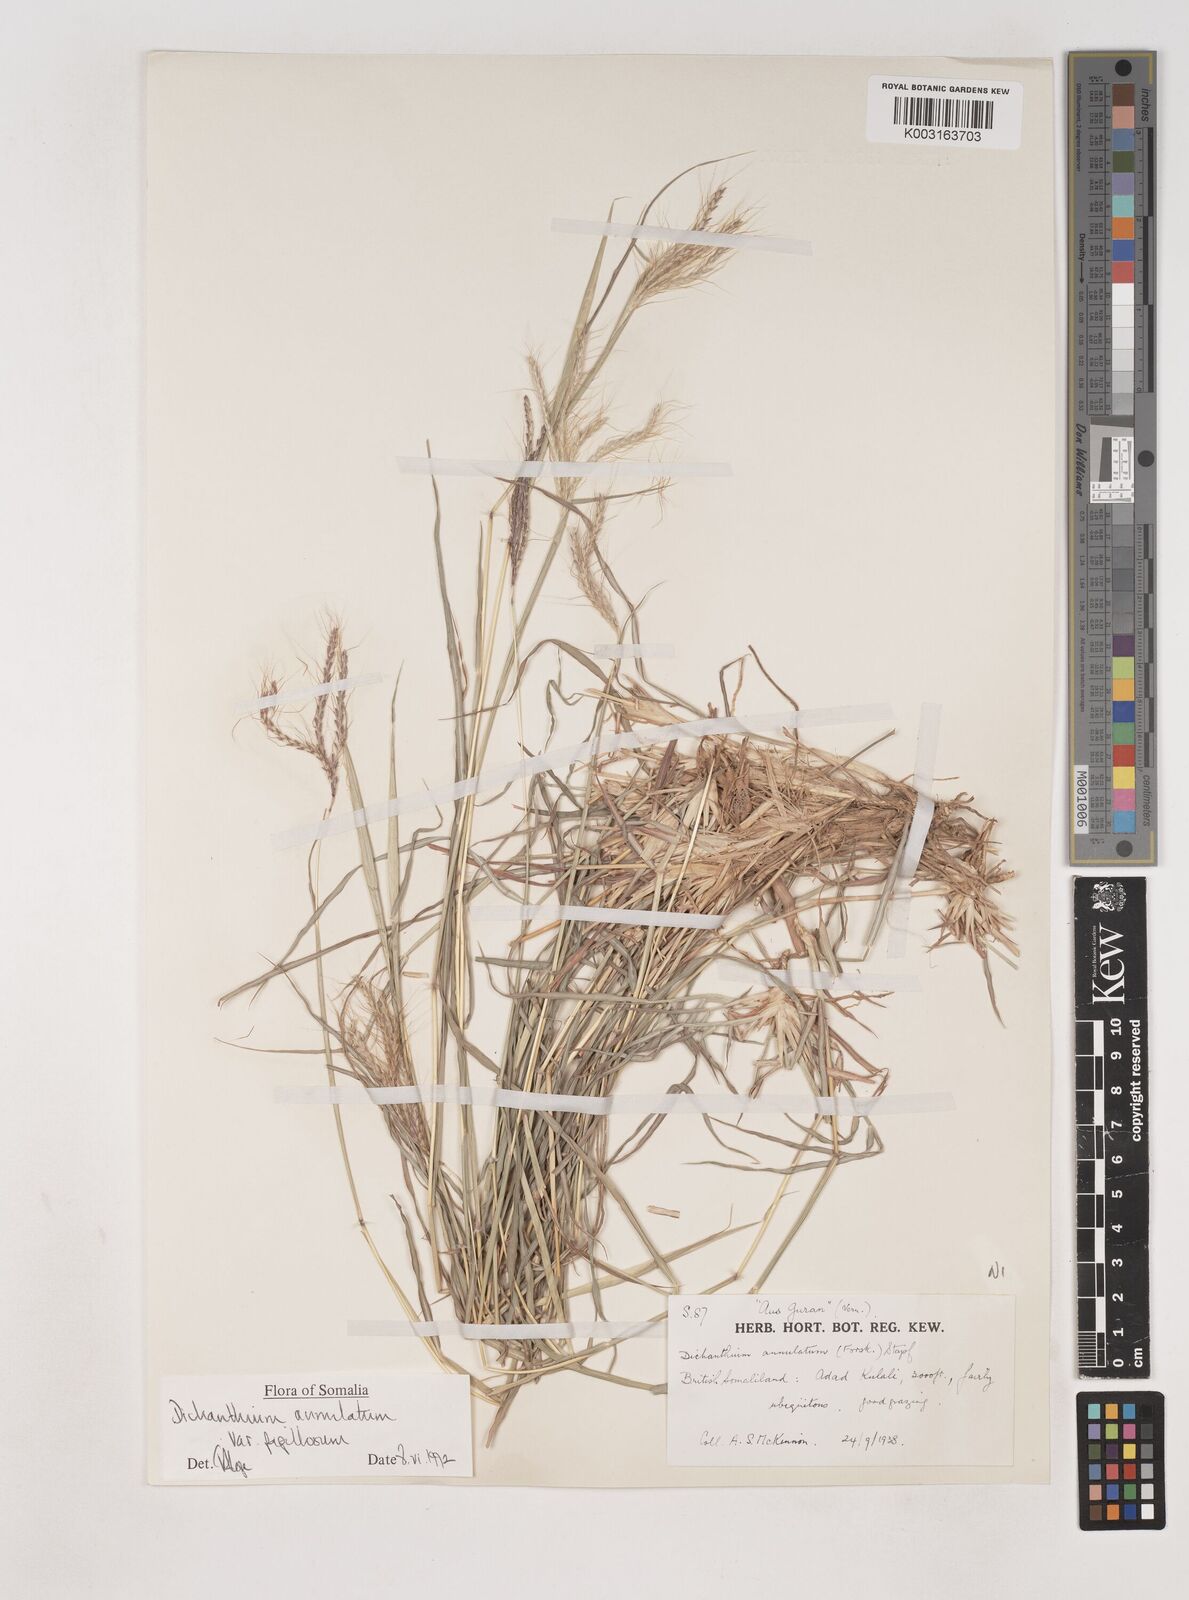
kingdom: Plantae
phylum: Tracheophyta
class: Liliopsida
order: Poales
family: Poaceae
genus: Dichanthium
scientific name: Dichanthium annulatum
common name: Kleberg's bluestem
